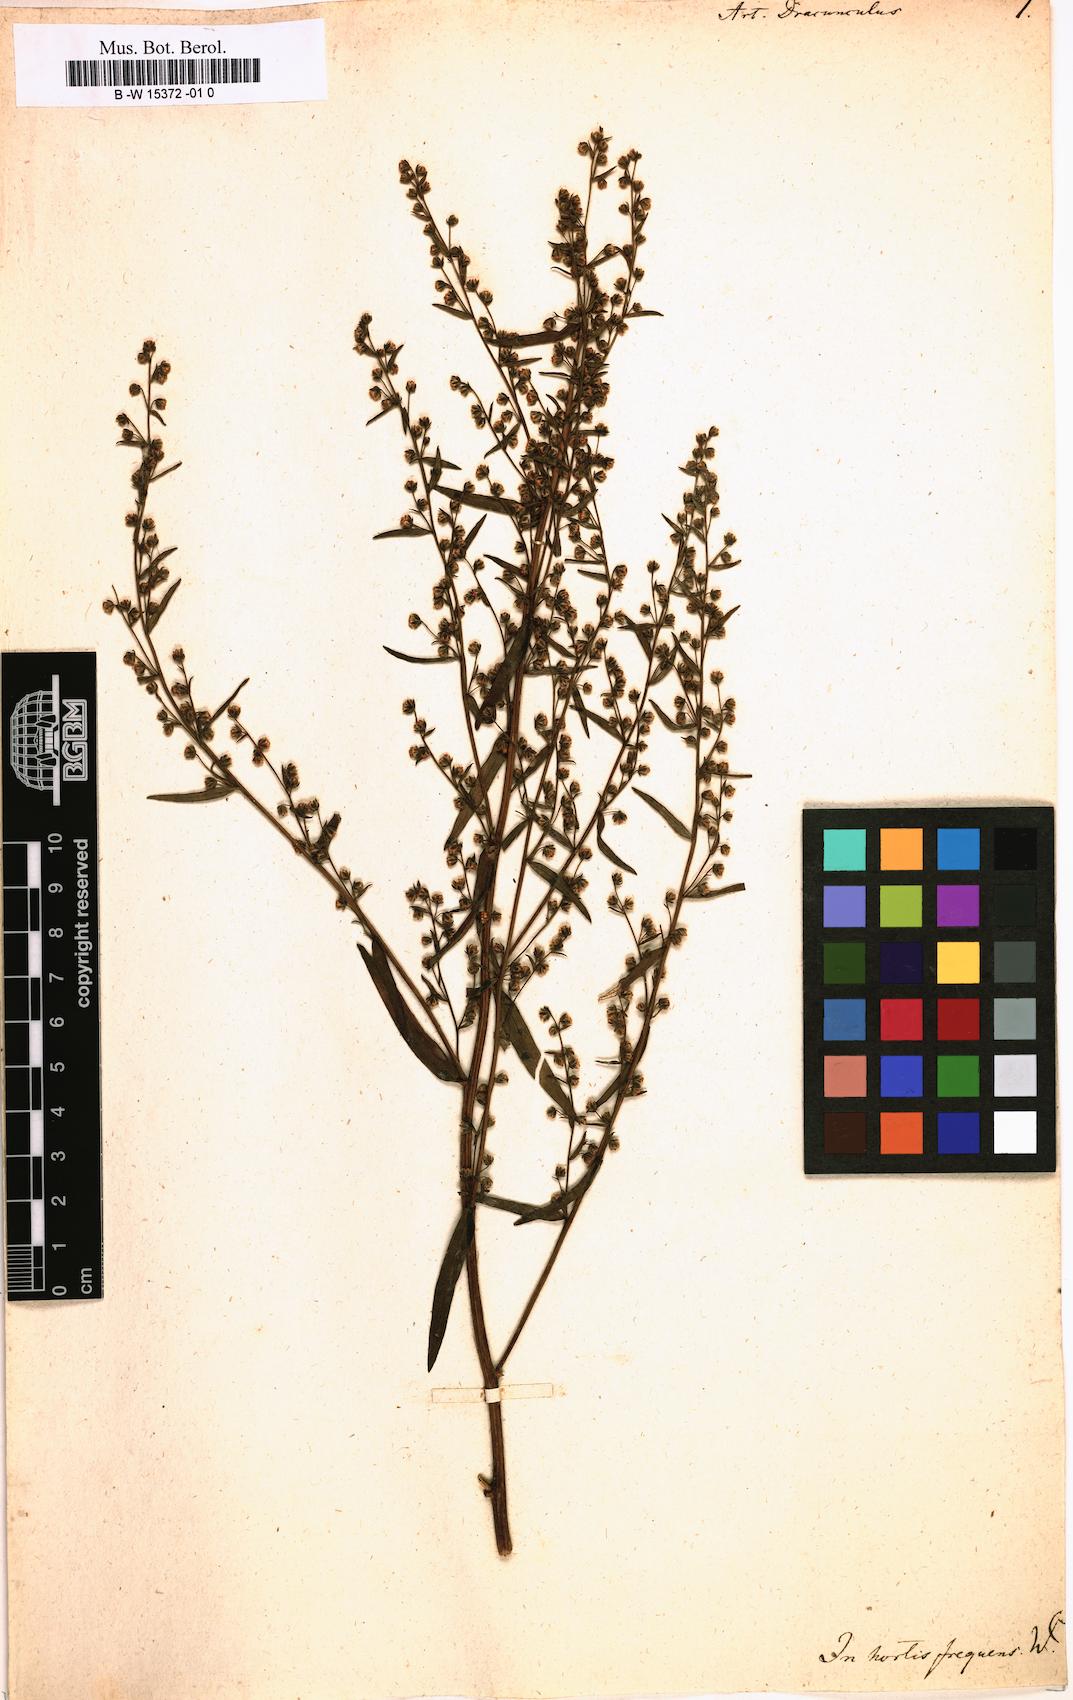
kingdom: Plantae
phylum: Tracheophyta
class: Magnoliopsida
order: Asterales
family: Asteraceae
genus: Artemisia
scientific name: Artemisia dracunculus
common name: Tarragon
